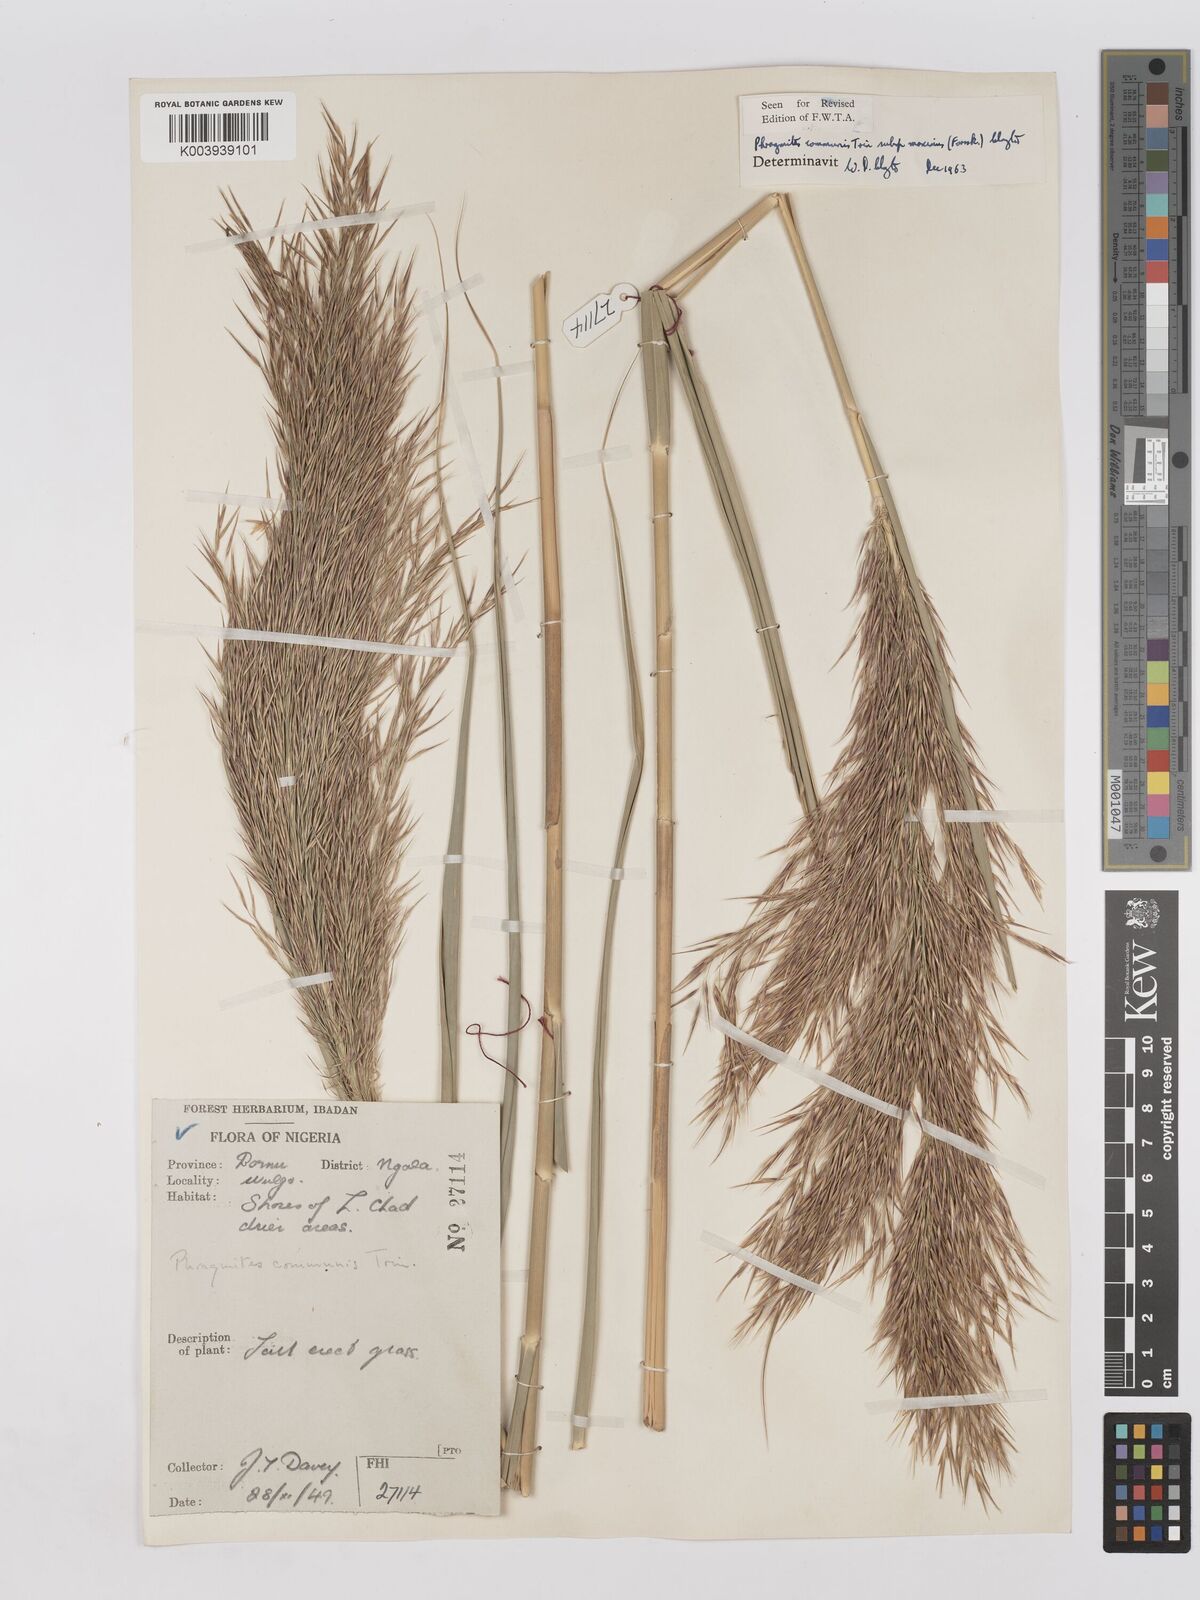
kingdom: Plantae
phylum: Tracheophyta
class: Liliopsida
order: Poales
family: Poaceae
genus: Phragmites
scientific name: Phragmites australis
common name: Common reed
